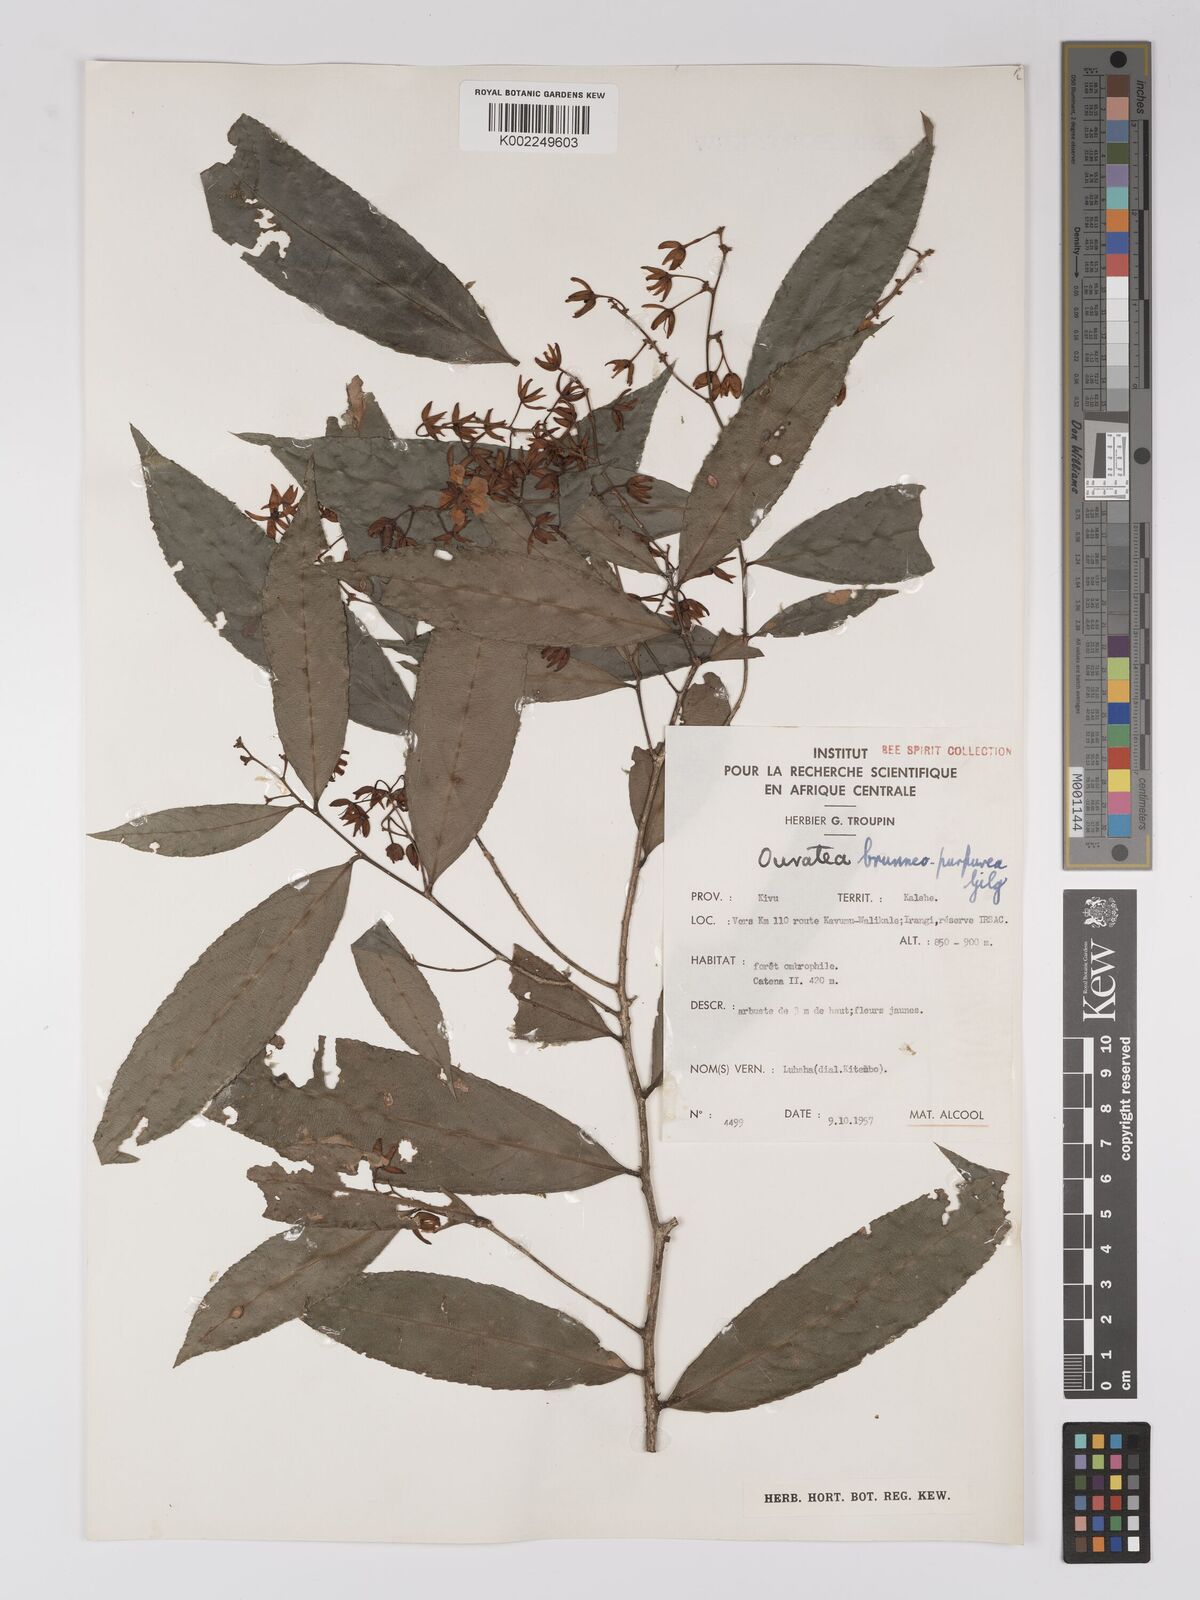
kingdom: Plantae
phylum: Tracheophyta
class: Magnoliopsida
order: Malpighiales
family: Ochnaceae
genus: Campylospermum
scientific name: Campylospermum reticulatum
